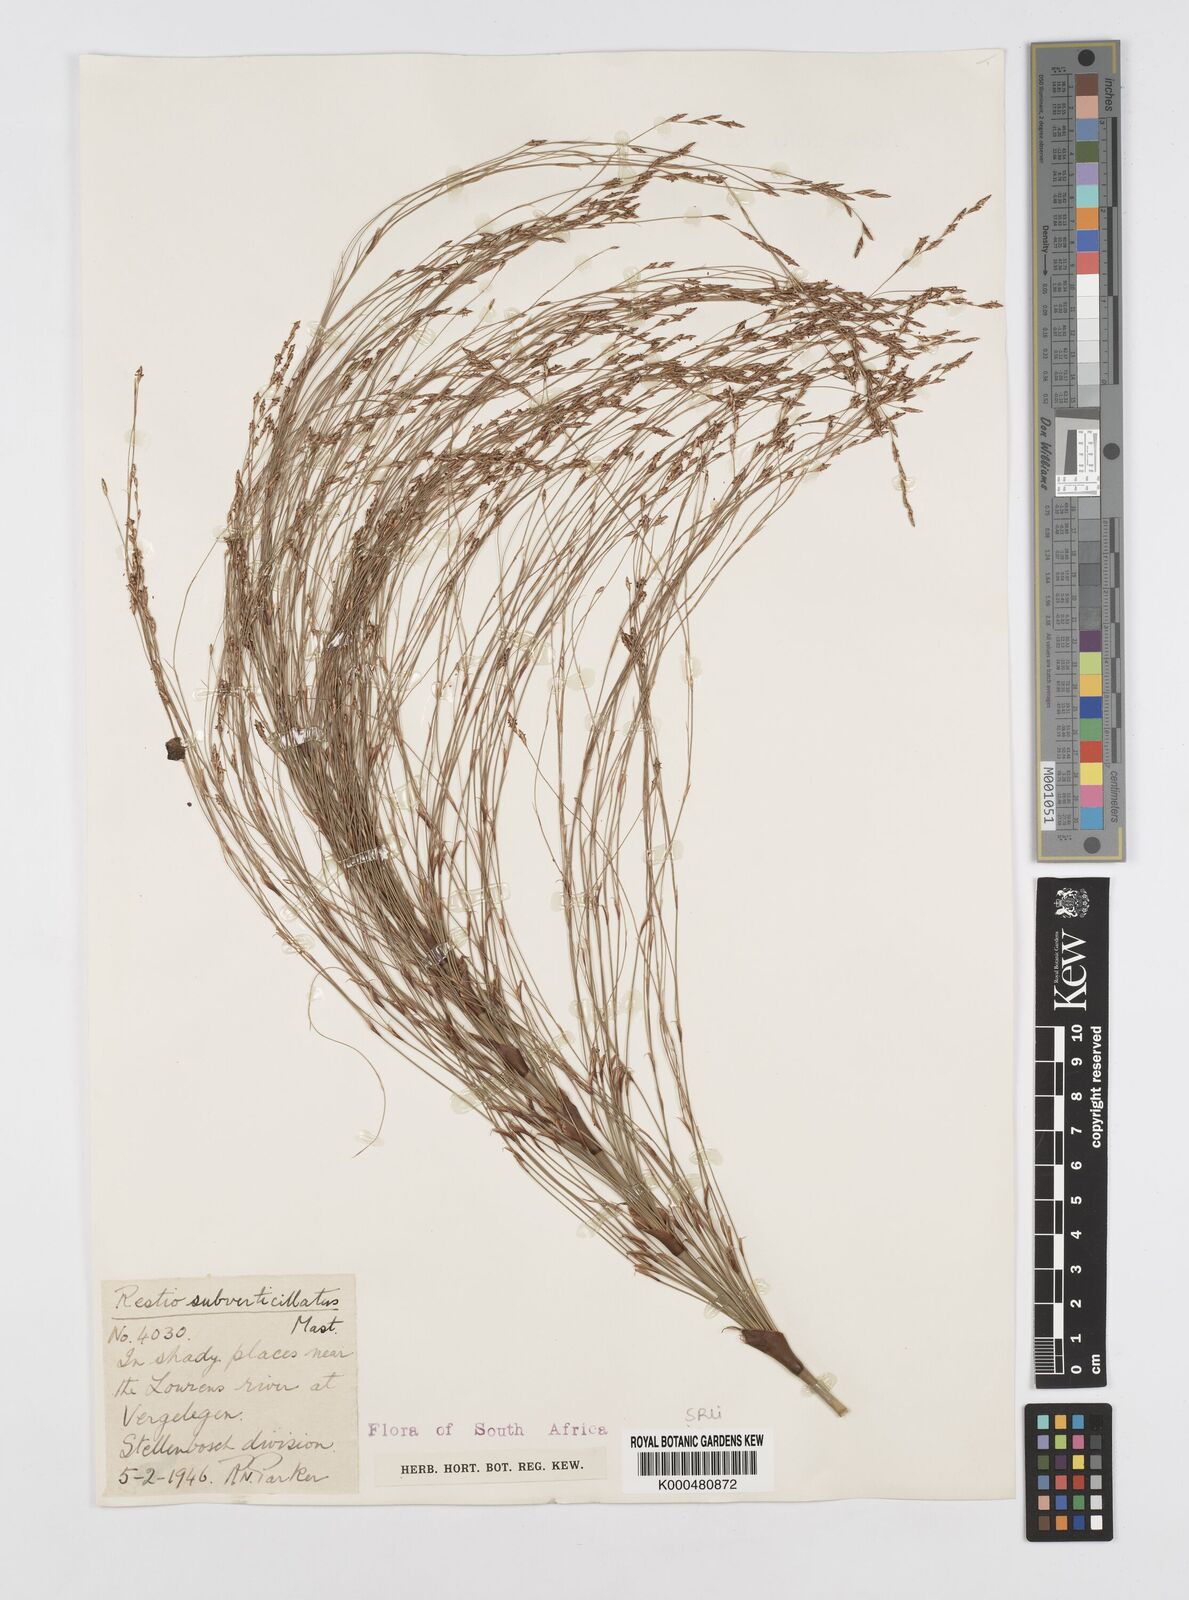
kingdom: Plantae
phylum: Tracheophyta
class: Liliopsida
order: Poales
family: Restionaceae
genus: Restio
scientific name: Restio subverticillatus
